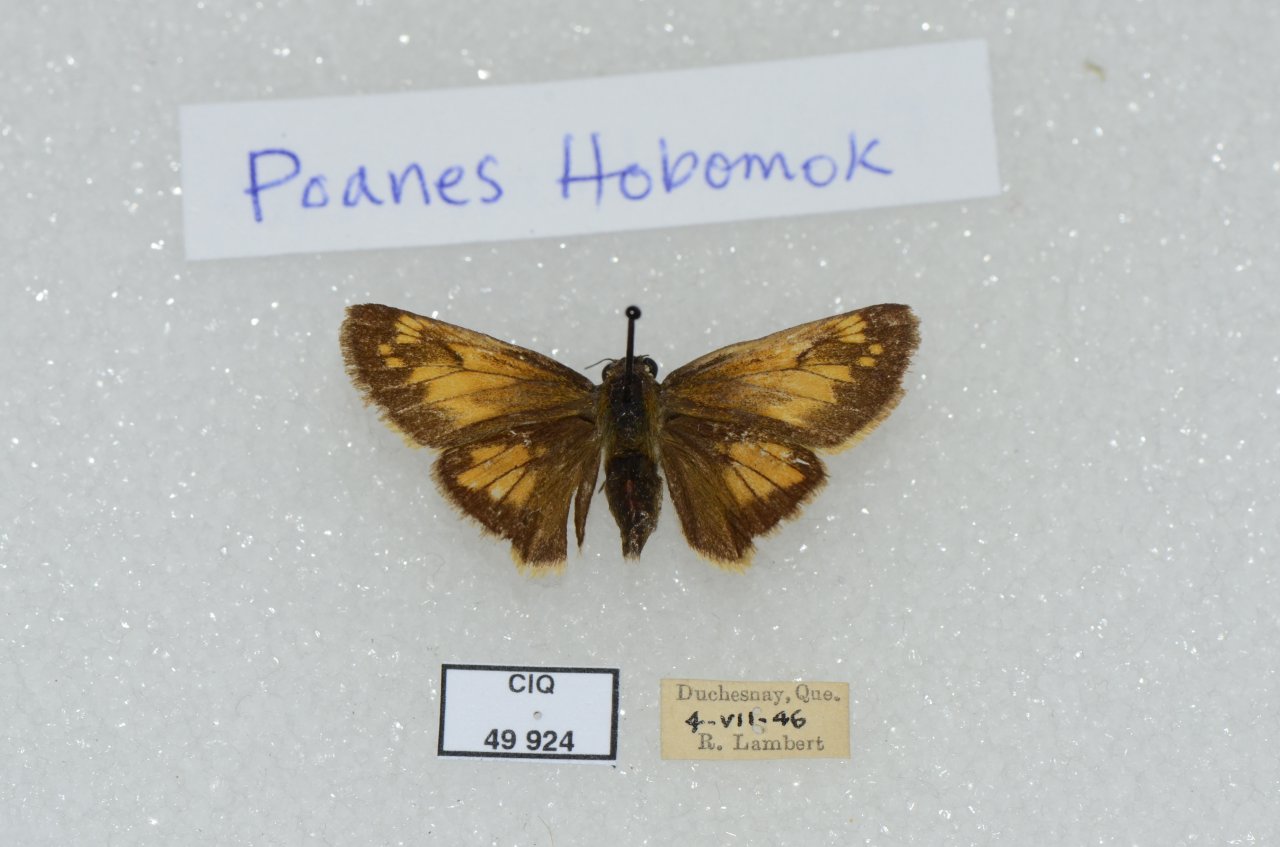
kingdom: Animalia
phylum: Arthropoda
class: Insecta
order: Lepidoptera
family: Hesperiidae
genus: Lon
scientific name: Lon hobomok
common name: Hobomok Skipper
